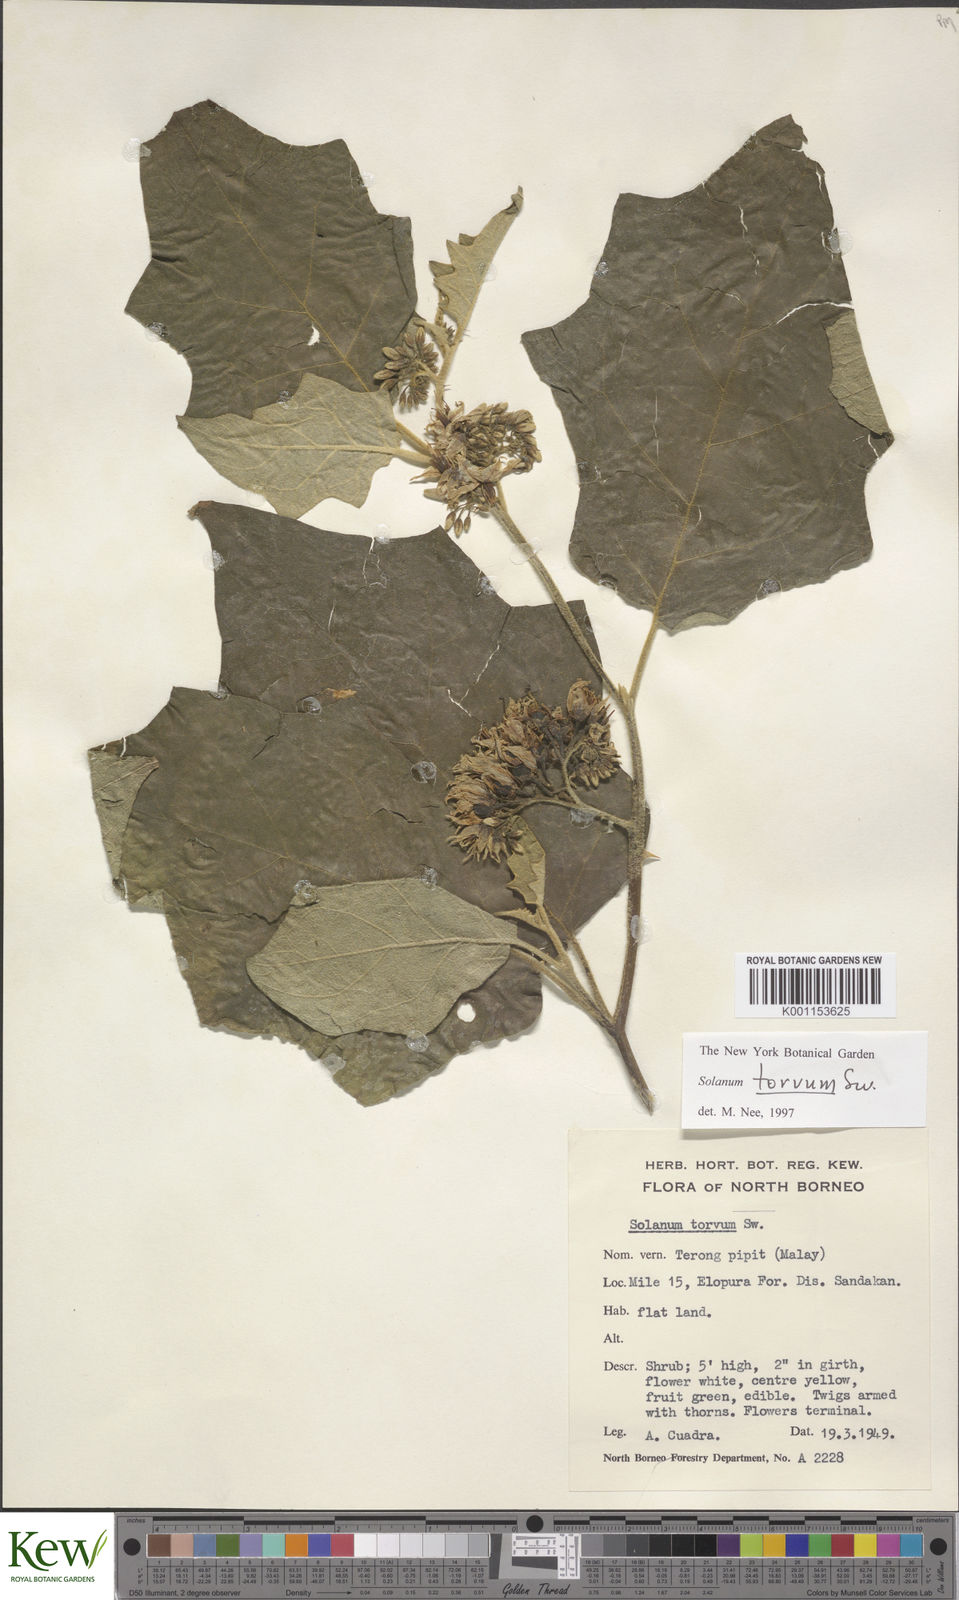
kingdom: Plantae
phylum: Tracheophyta
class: Magnoliopsida
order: Solanales
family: Solanaceae
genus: Solanum
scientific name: Solanum torvum
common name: Turkey berry
